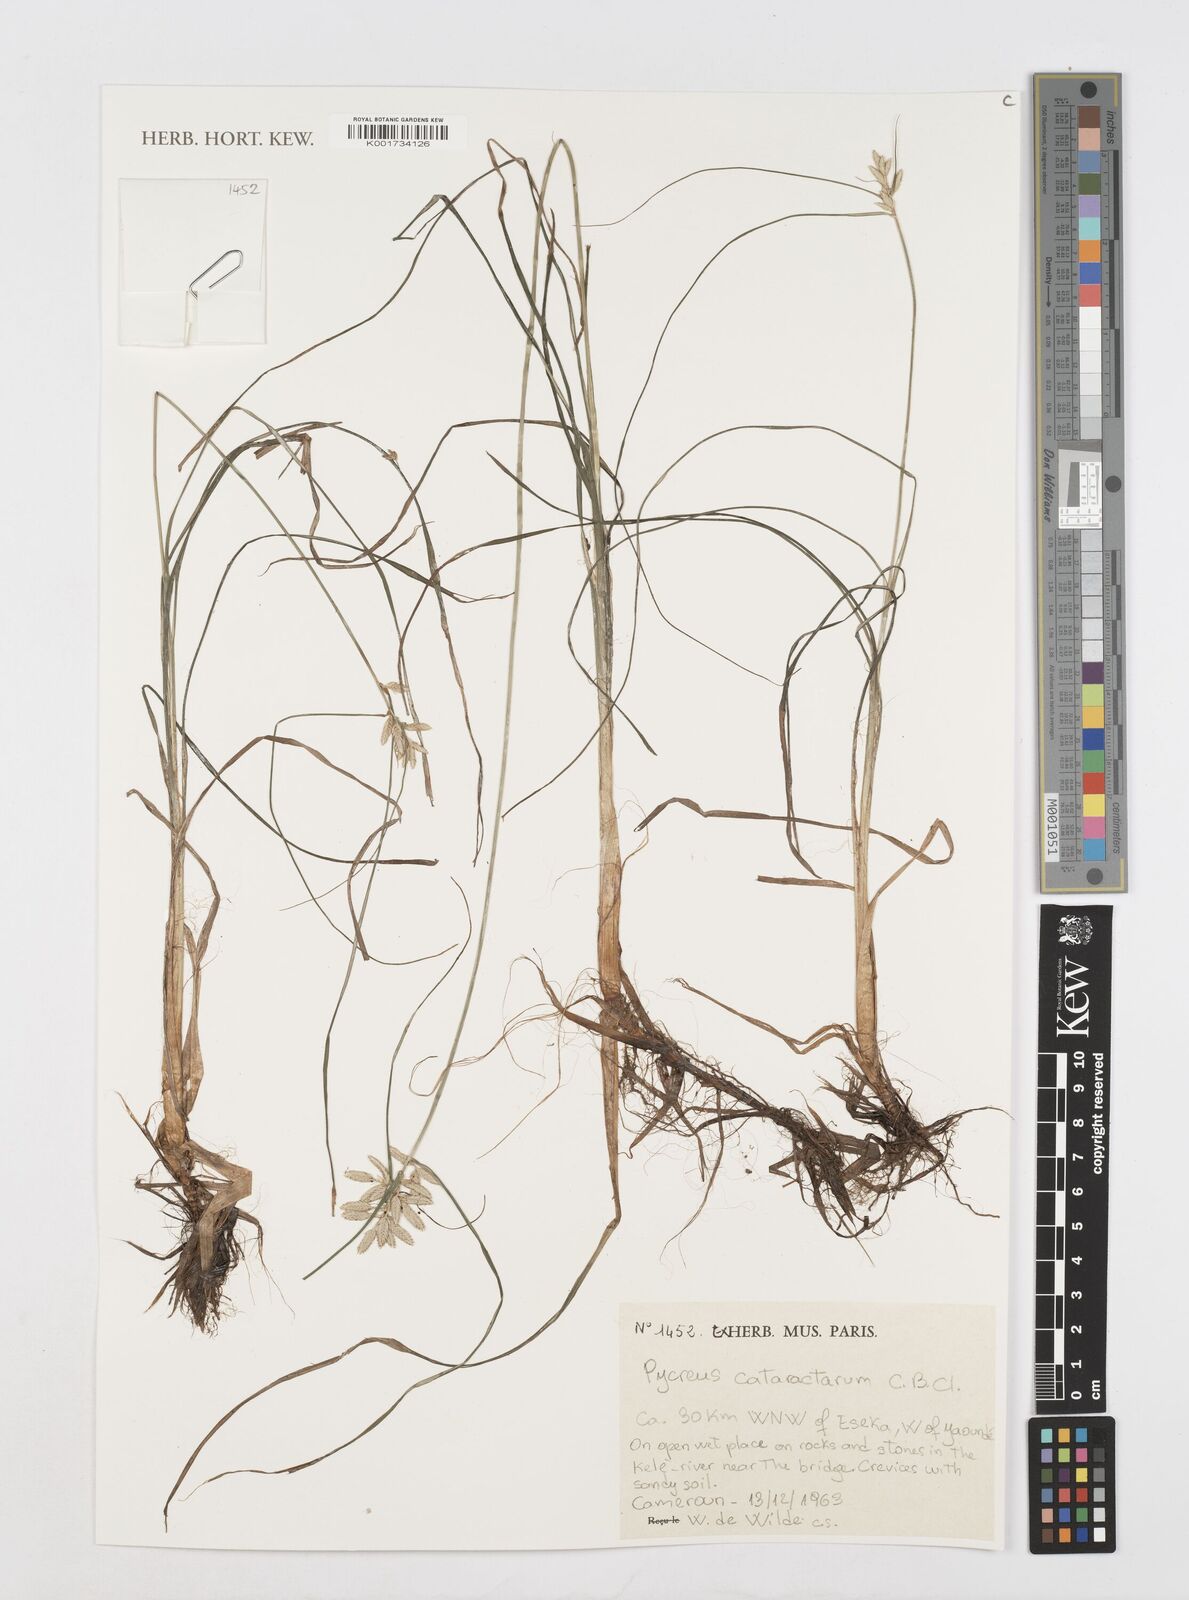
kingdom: Plantae
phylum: Tracheophyta
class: Liliopsida
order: Poales
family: Cyperaceae
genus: Cyperus
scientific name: Cyperus cataractarum
